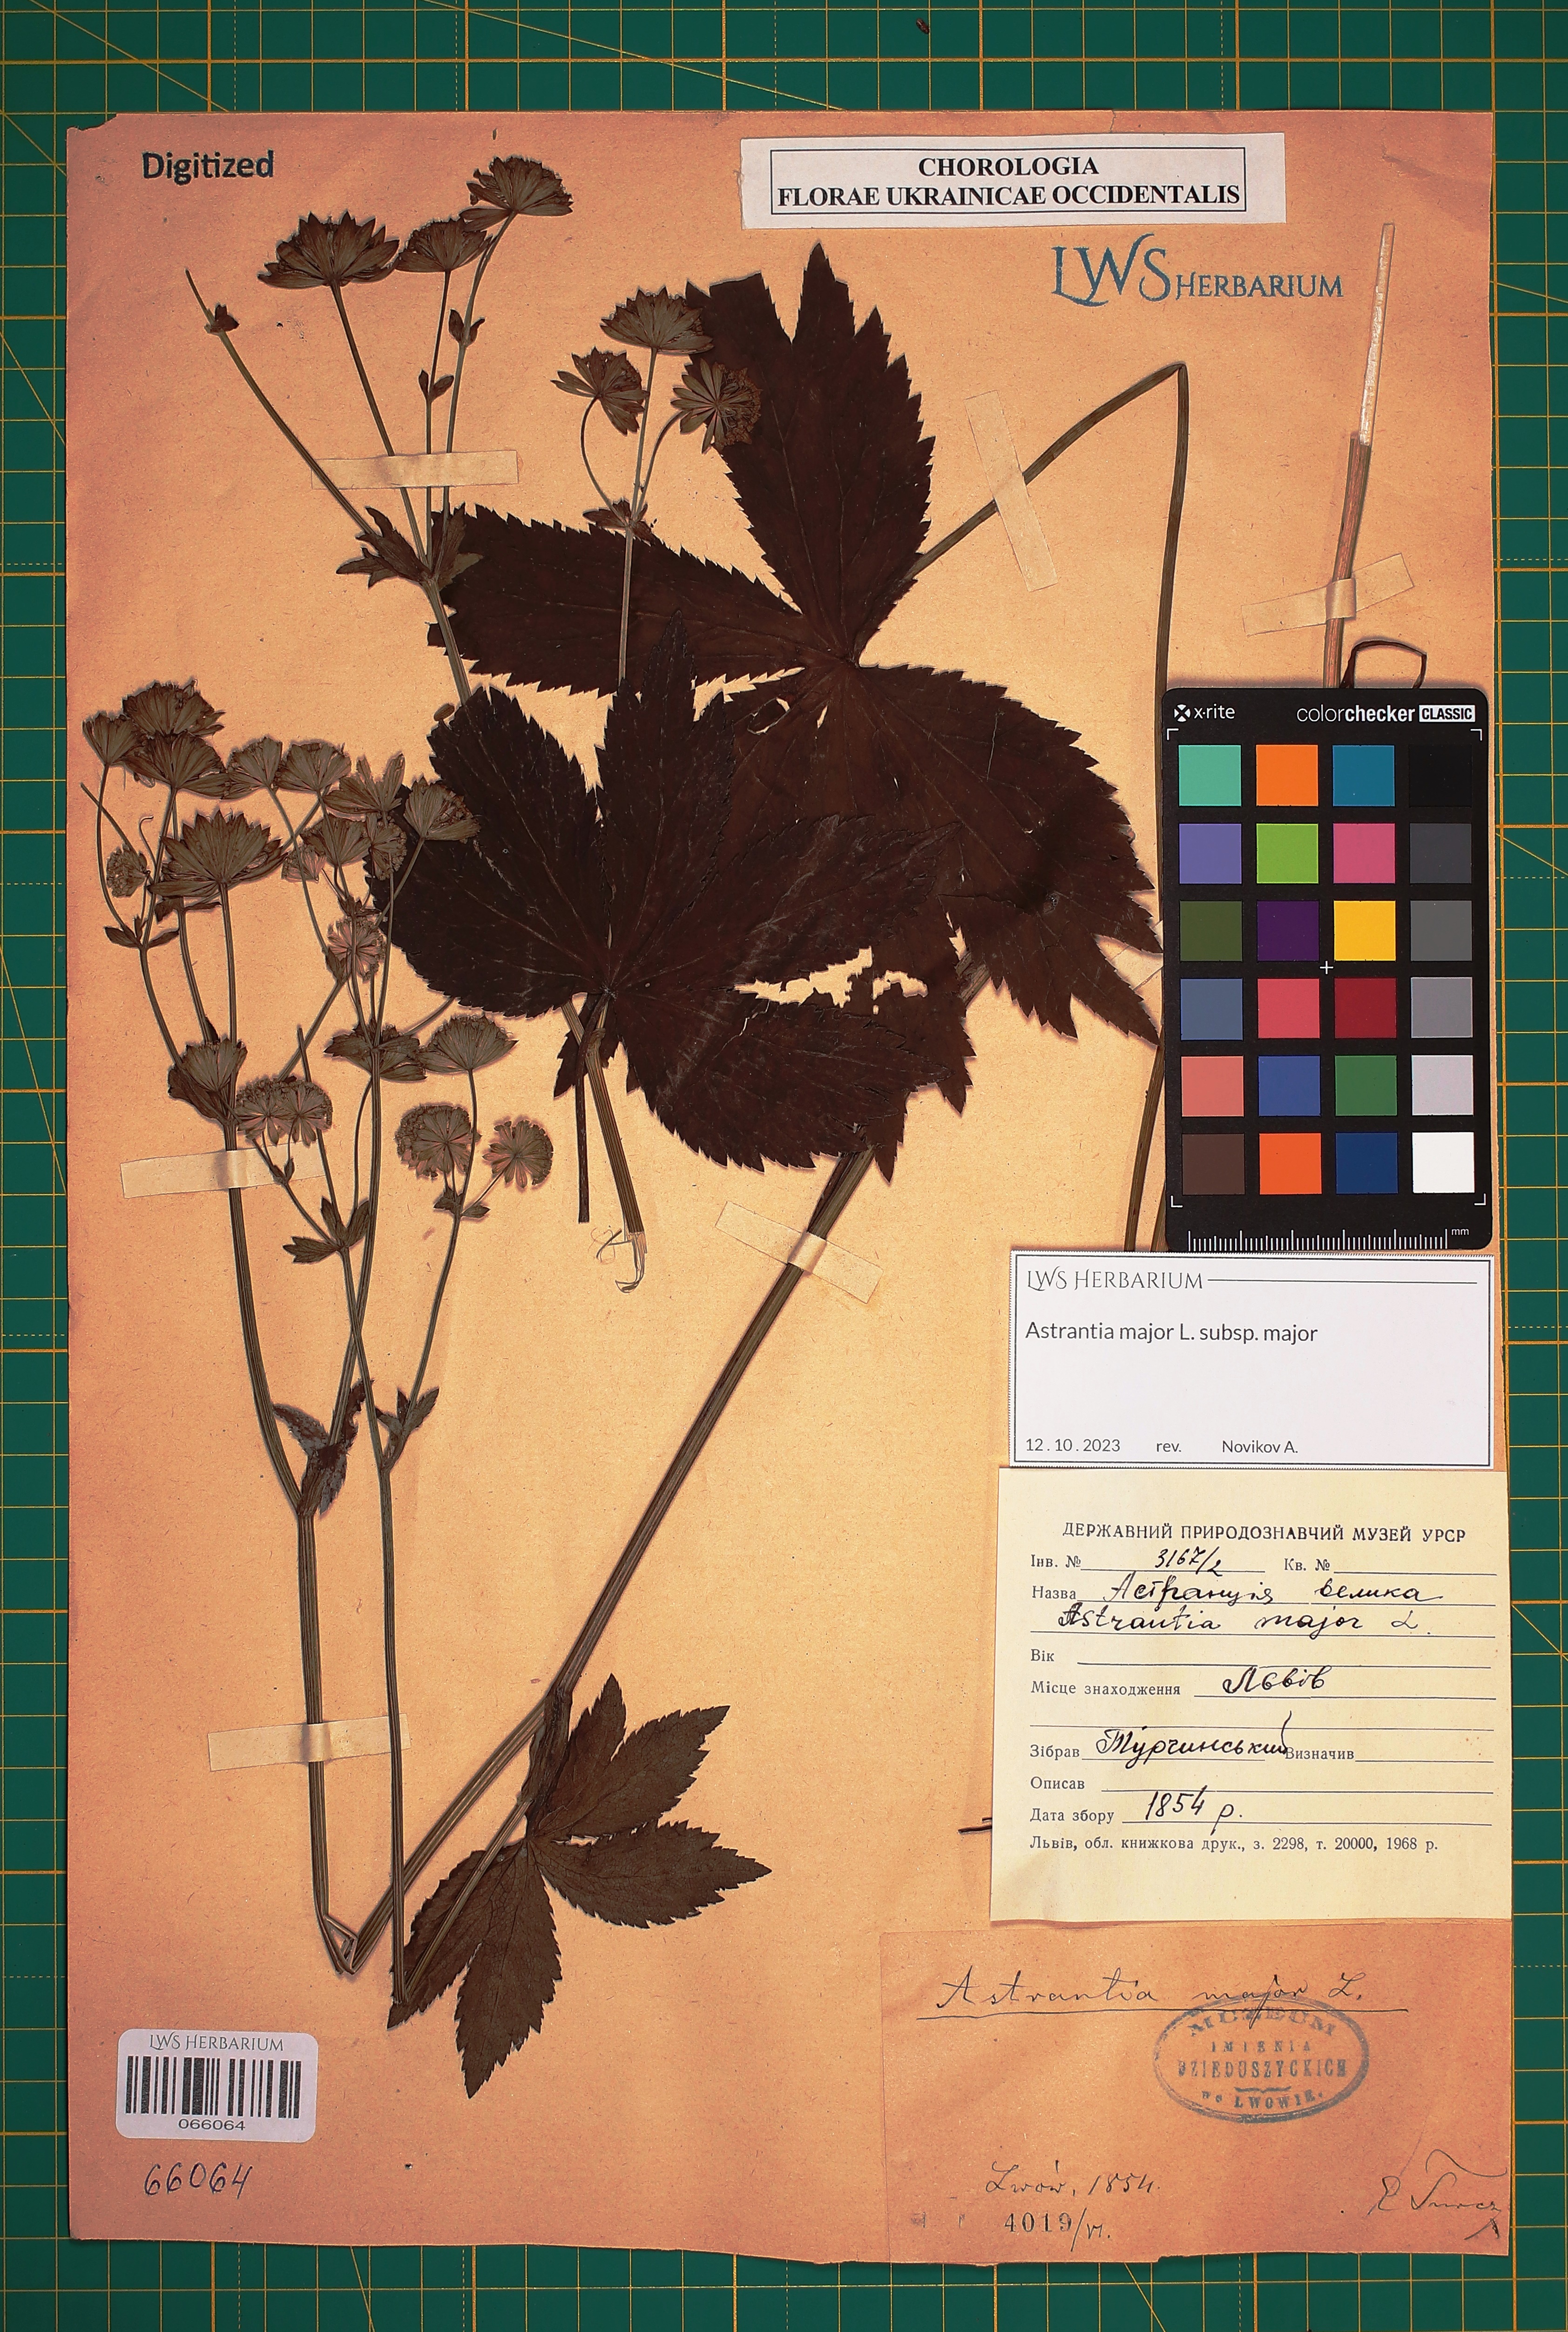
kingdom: Plantae
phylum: Tracheophyta
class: Magnoliopsida
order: Apiales
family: Apiaceae
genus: Astrantia
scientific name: Astrantia major
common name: Greater masterwort
